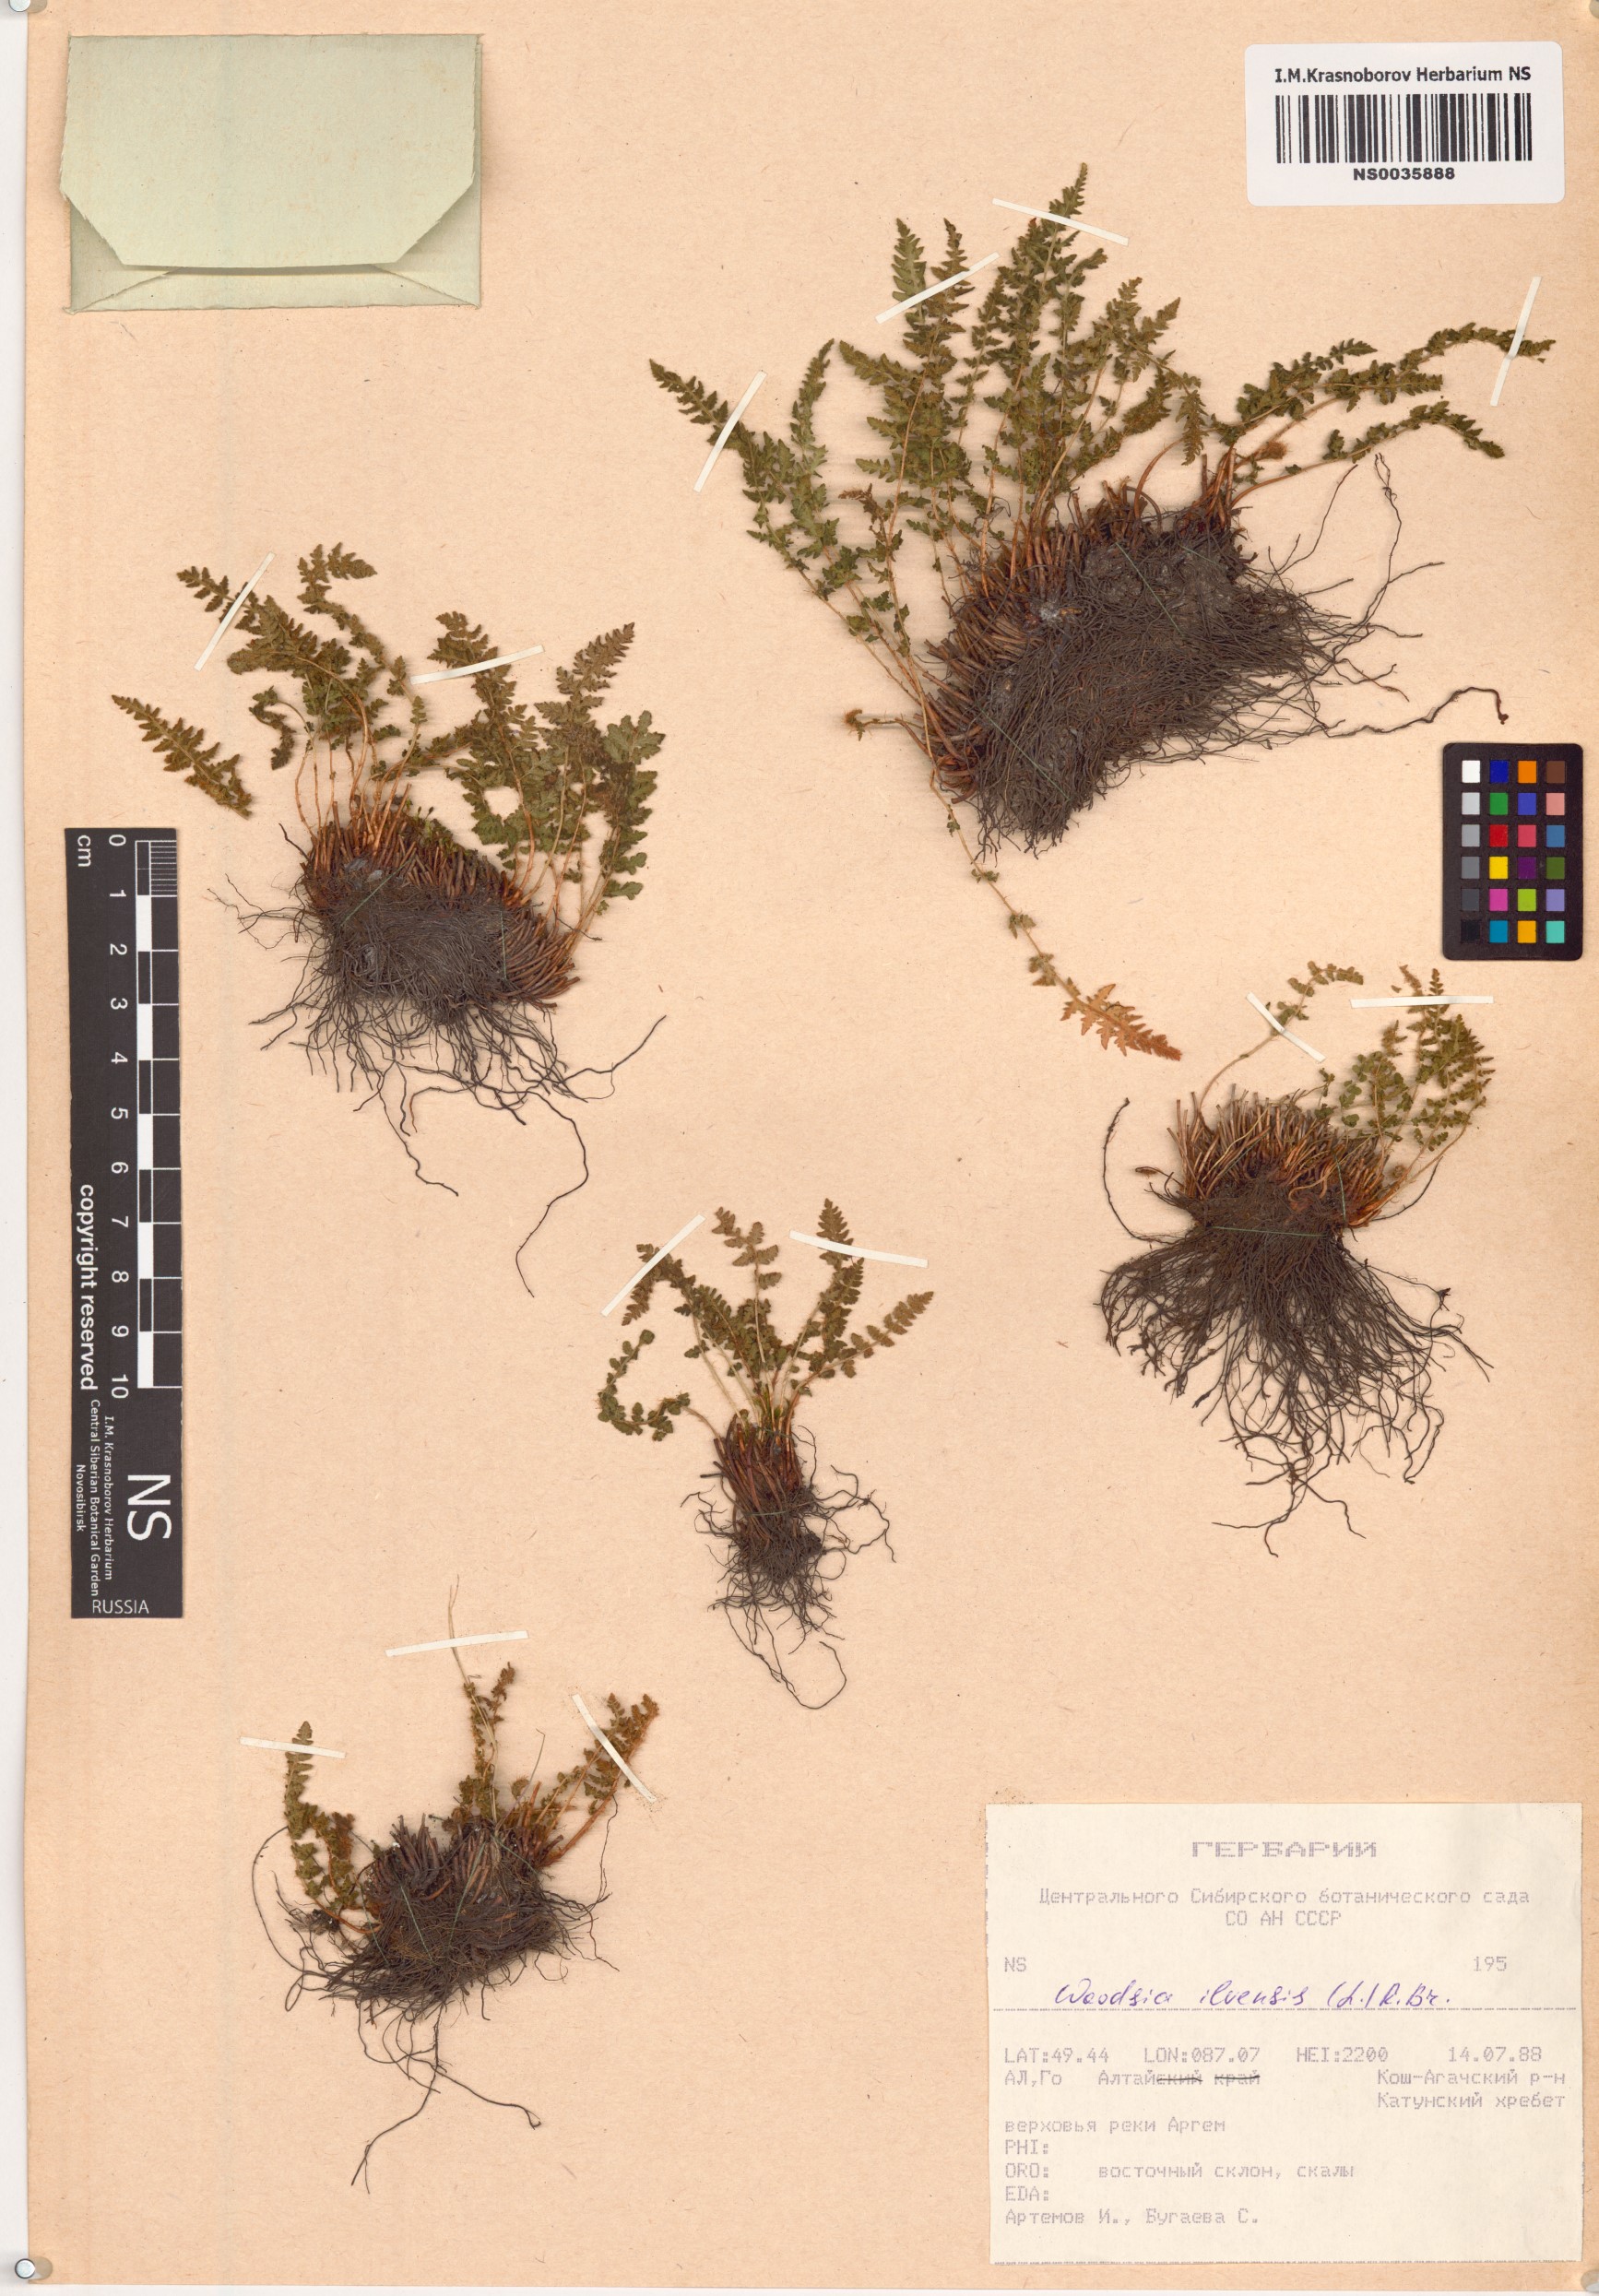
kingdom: Plantae
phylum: Tracheophyta
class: Polypodiopsida
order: Polypodiales
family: Woodsiaceae
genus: Woodsia
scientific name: Woodsia ilvensis
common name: Fragrant woodsia
